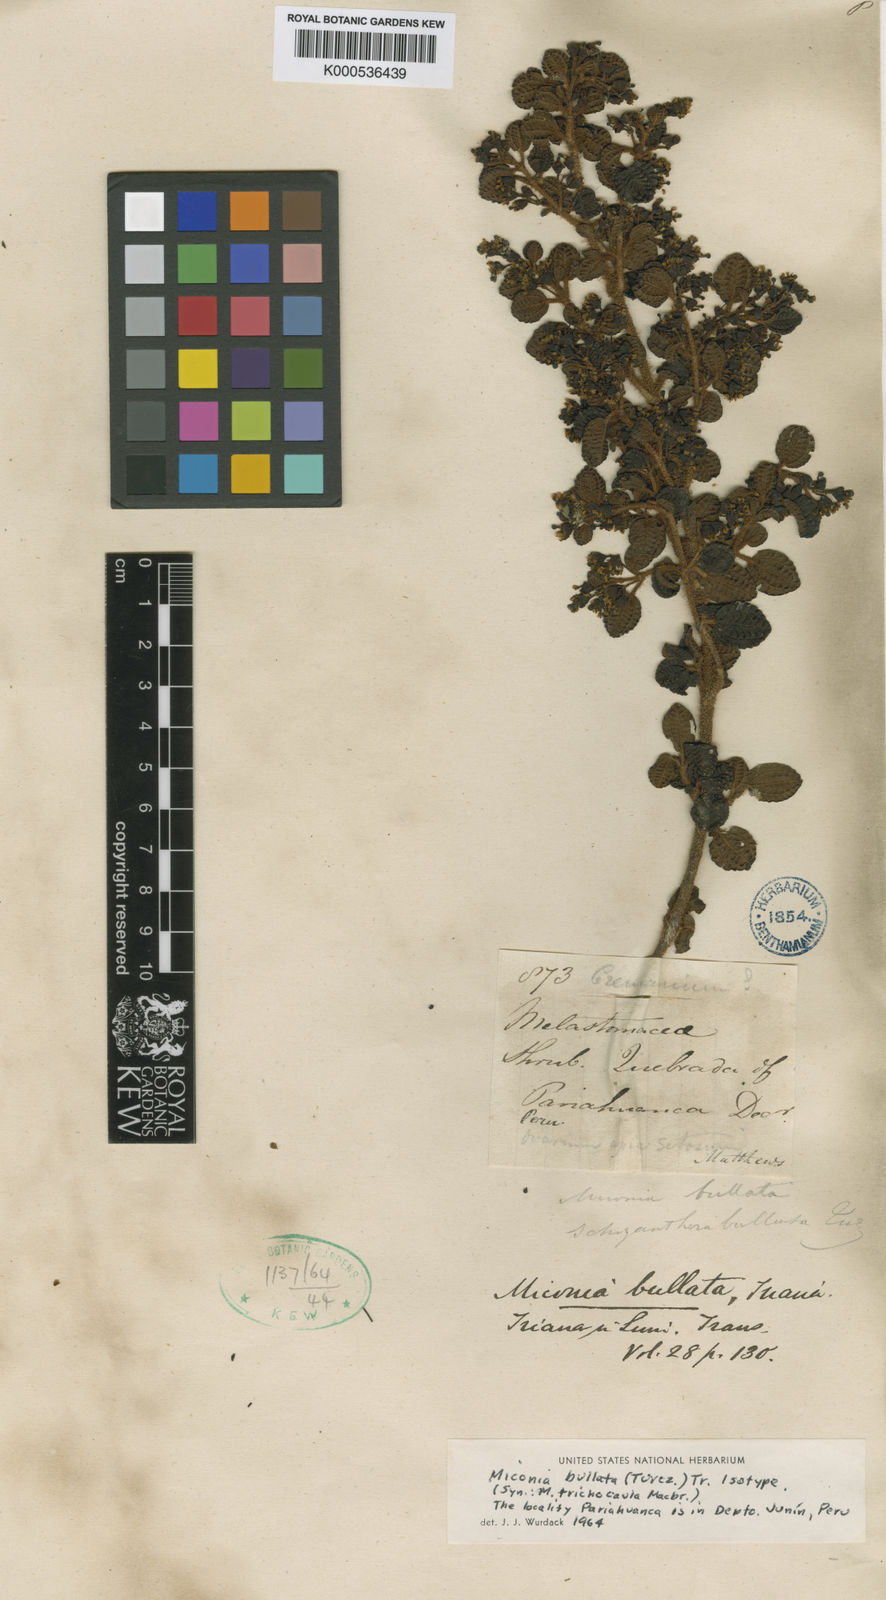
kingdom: Plantae
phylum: Tracheophyta
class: Magnoliopsida
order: Myrtales
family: Melastomataceae
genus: Miconia
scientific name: Miconia bullata
